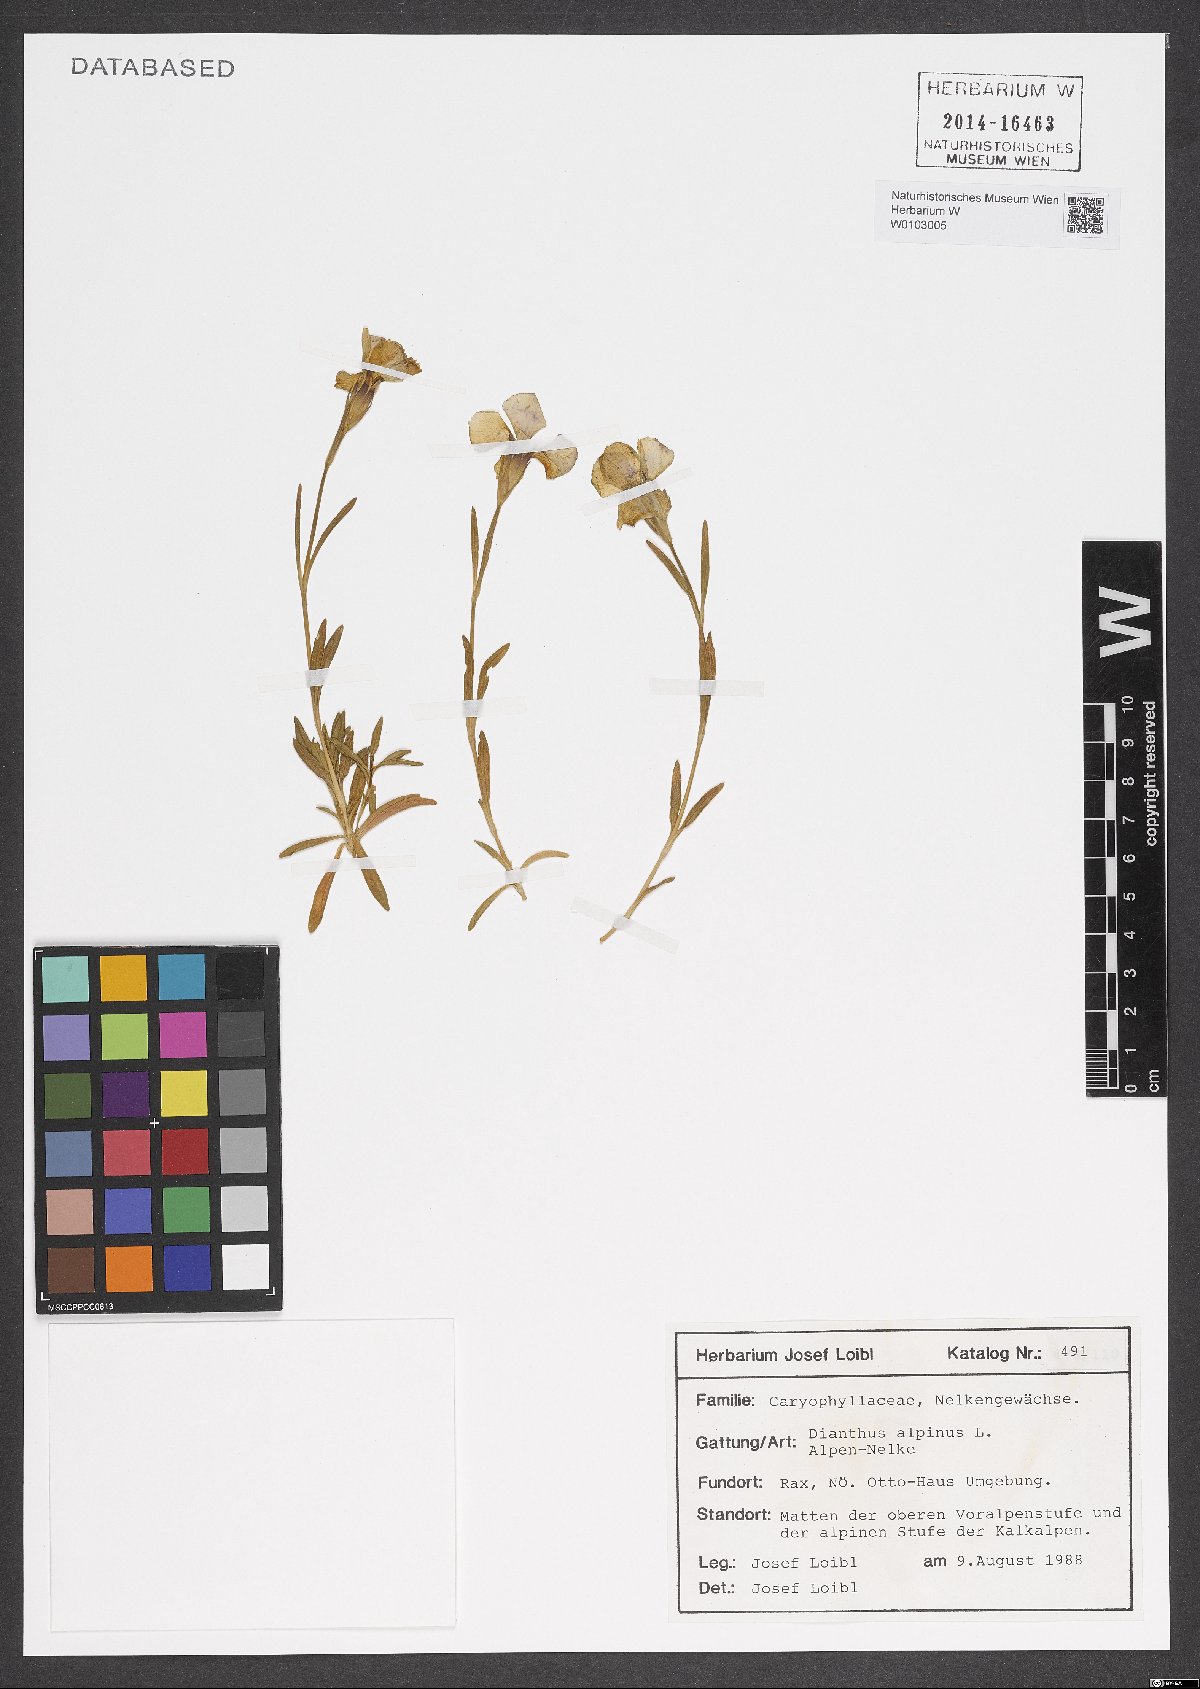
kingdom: Plantae
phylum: Tracheophyta
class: Magnoliopsida
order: Caryophyllales
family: Caryophyllaceae
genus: Dianthus
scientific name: Dianthus alpinus
